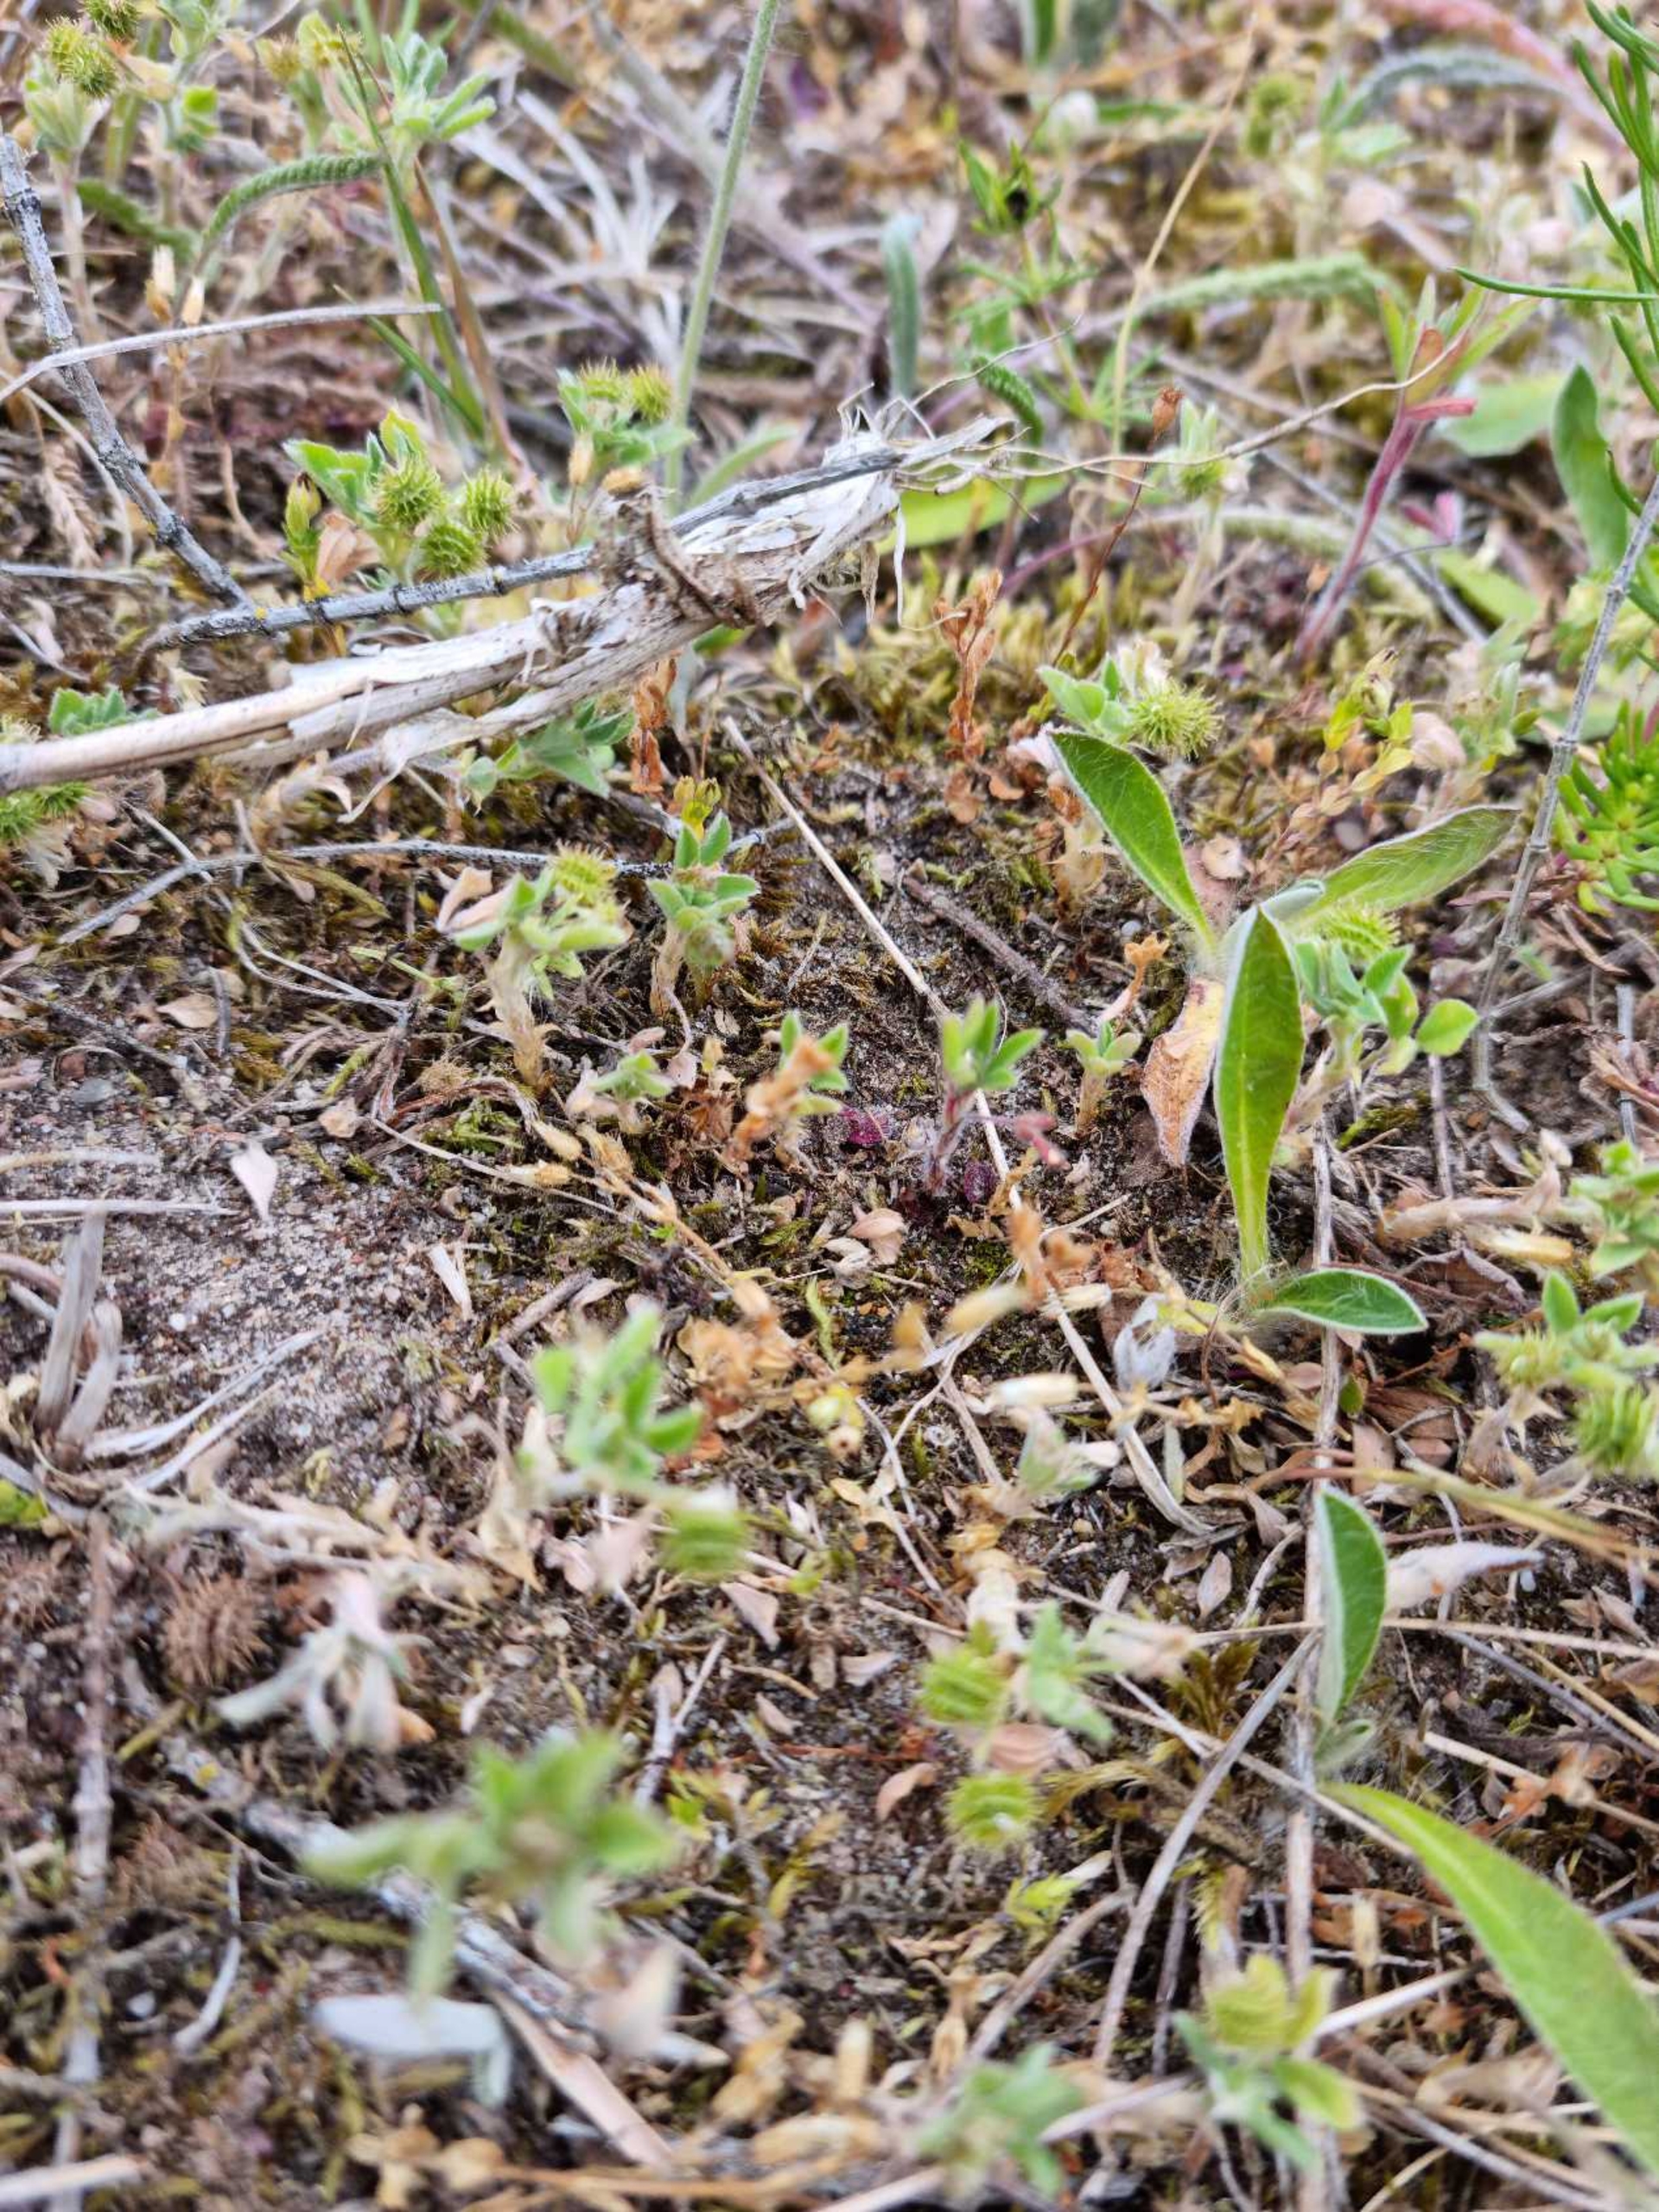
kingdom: Plantae
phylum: Tracheophyta
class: Magnoliopsida
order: Fabales
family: Fabaceae
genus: Medicago
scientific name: Medicago minima
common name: Liden sneglebælg
